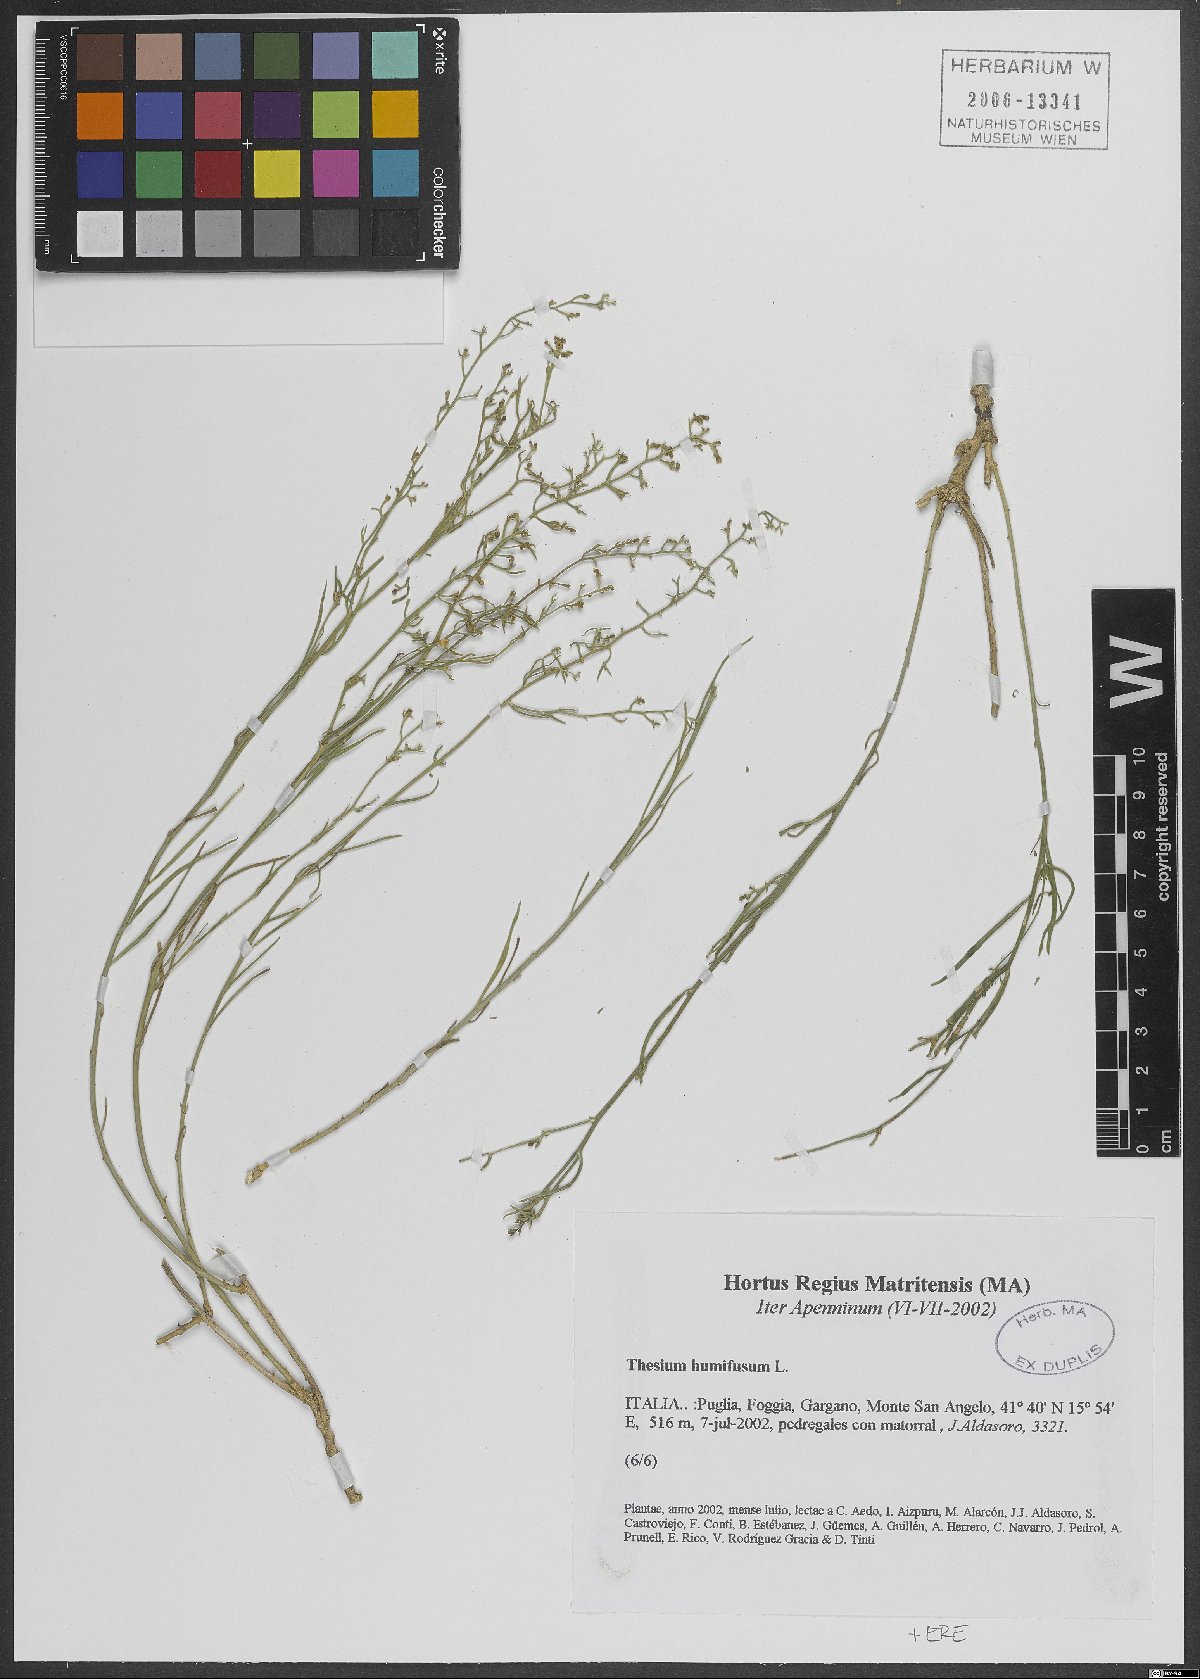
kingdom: Plantae
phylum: Tracheophyta
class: Magnoliopsida
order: Santalales
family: Thesiaceae
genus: Thesium
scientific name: Thesium humifusum
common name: Bastard-toadflax
